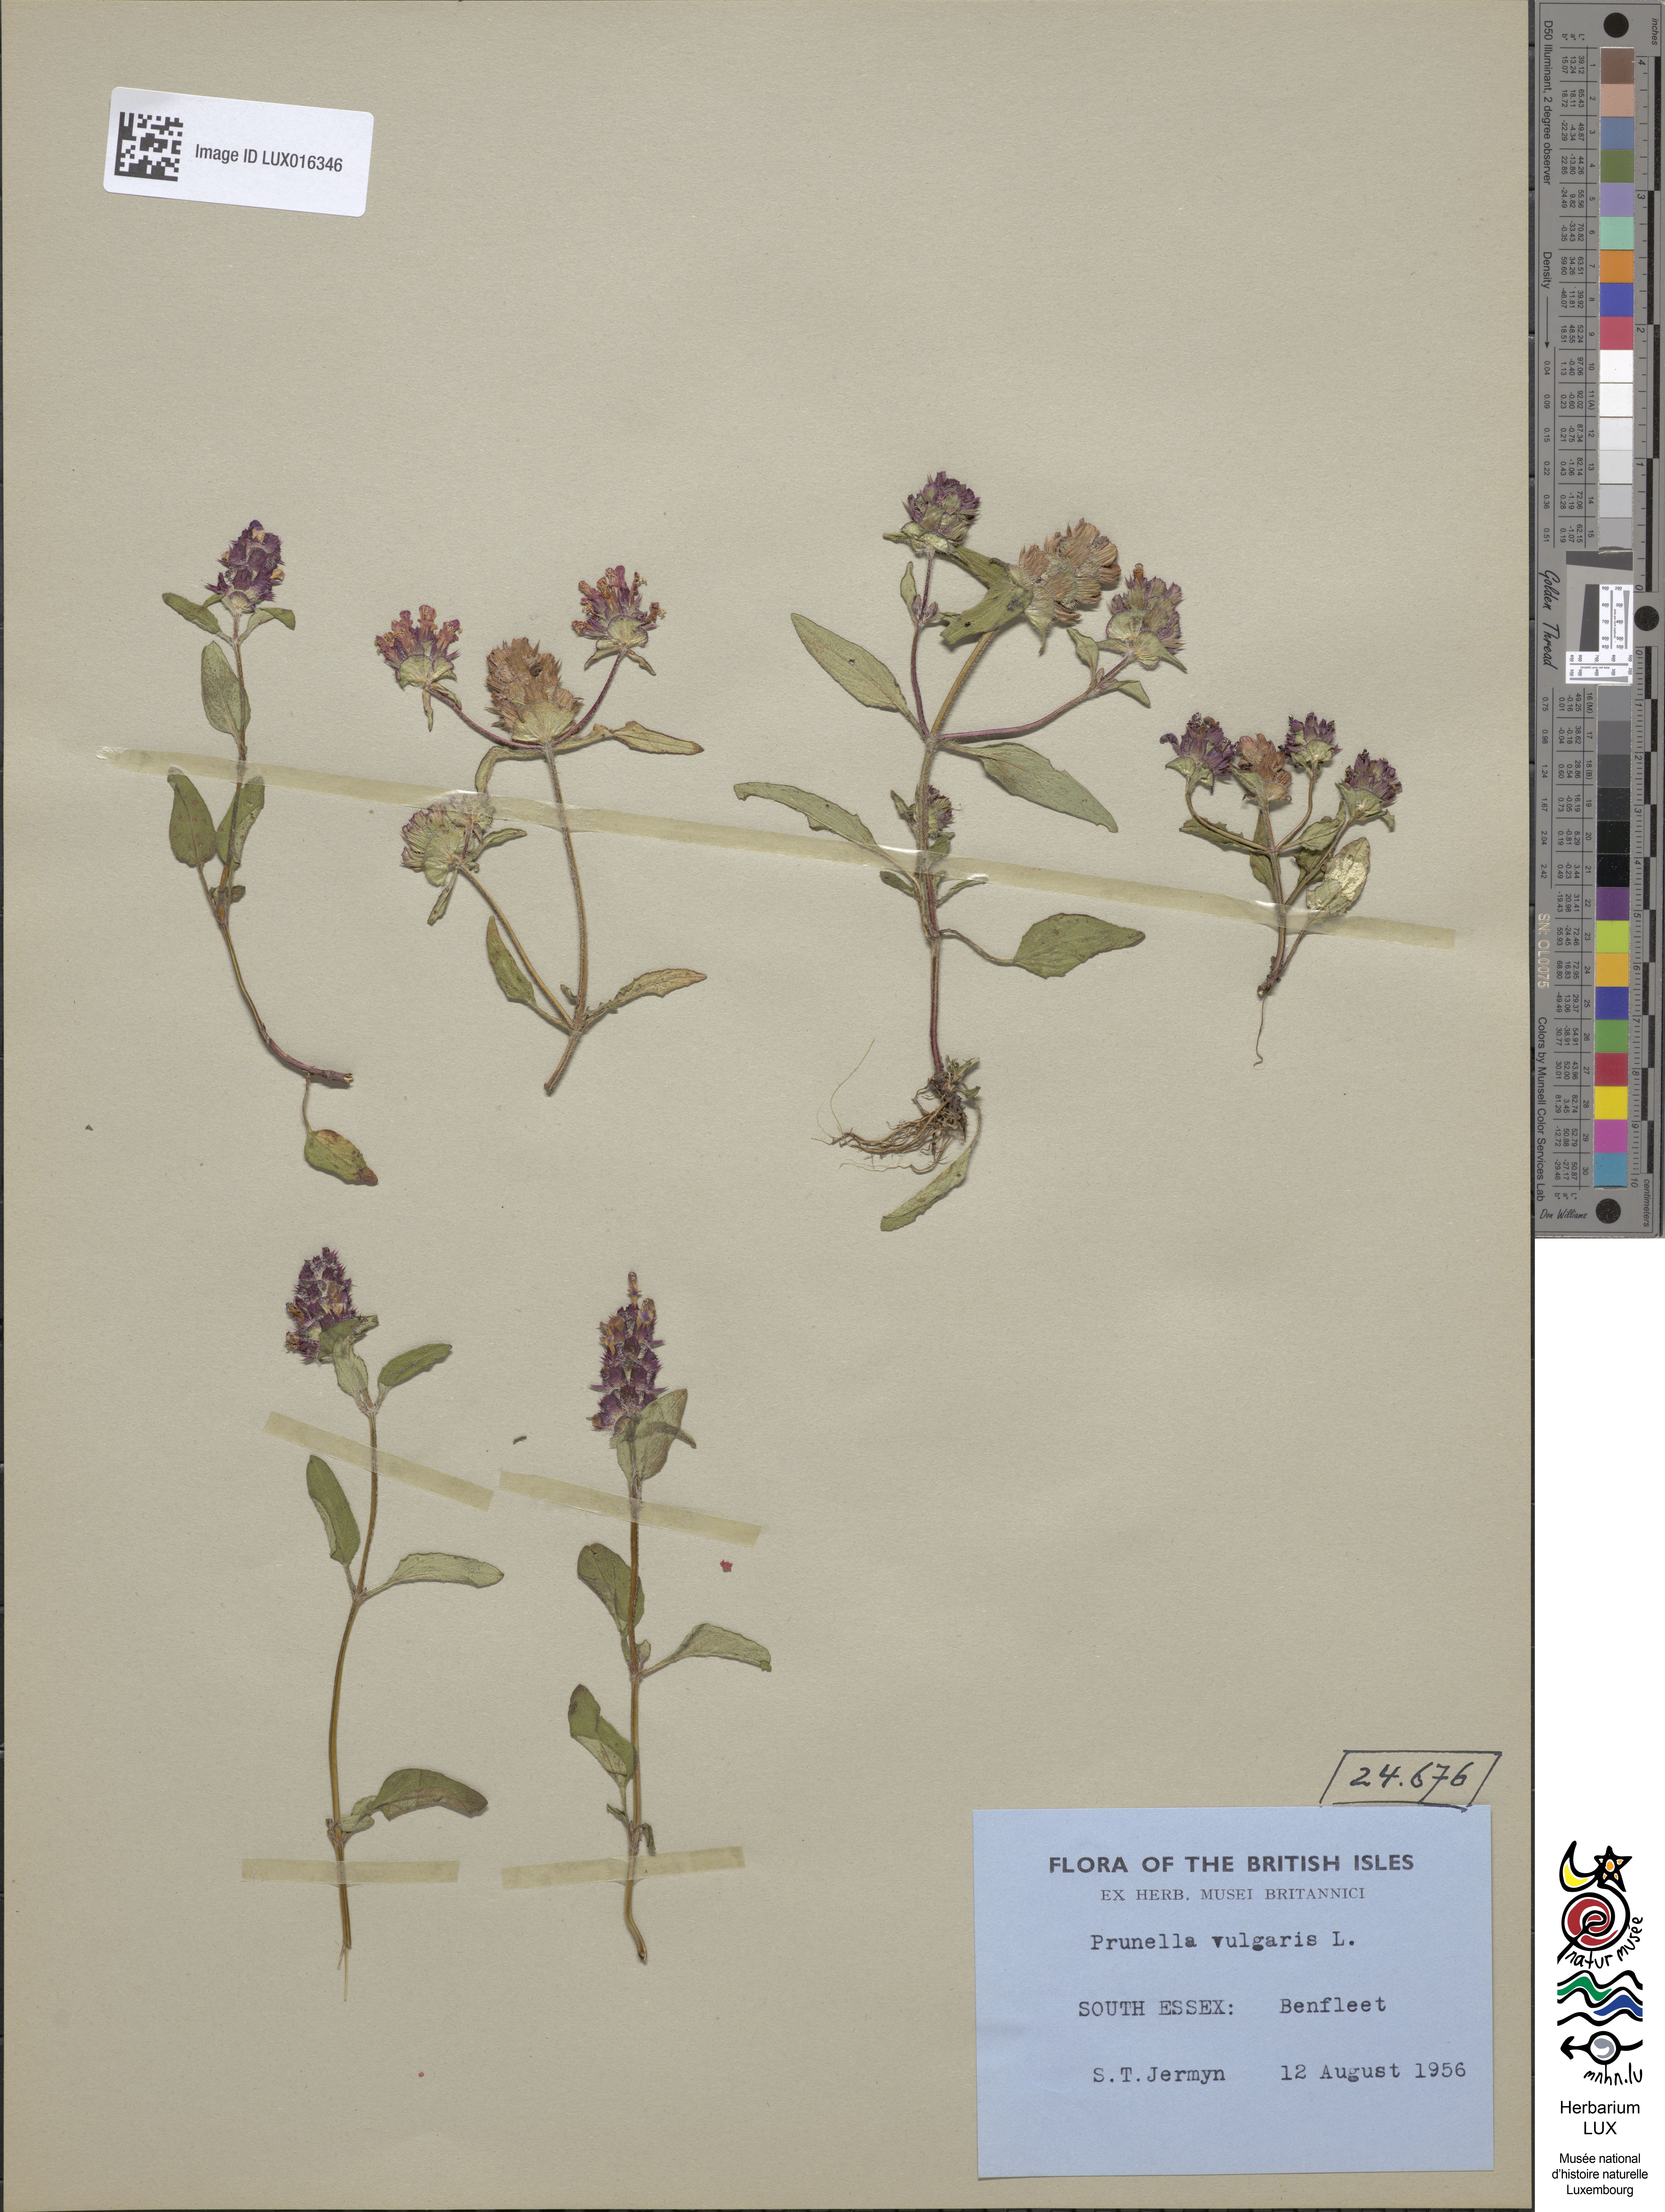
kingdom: Plantae
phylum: Tracheophyta
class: Magnoliopsida
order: Lamiales
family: Lamiaceae
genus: Prunella
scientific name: Prunella vulgaris
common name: Heal-all
